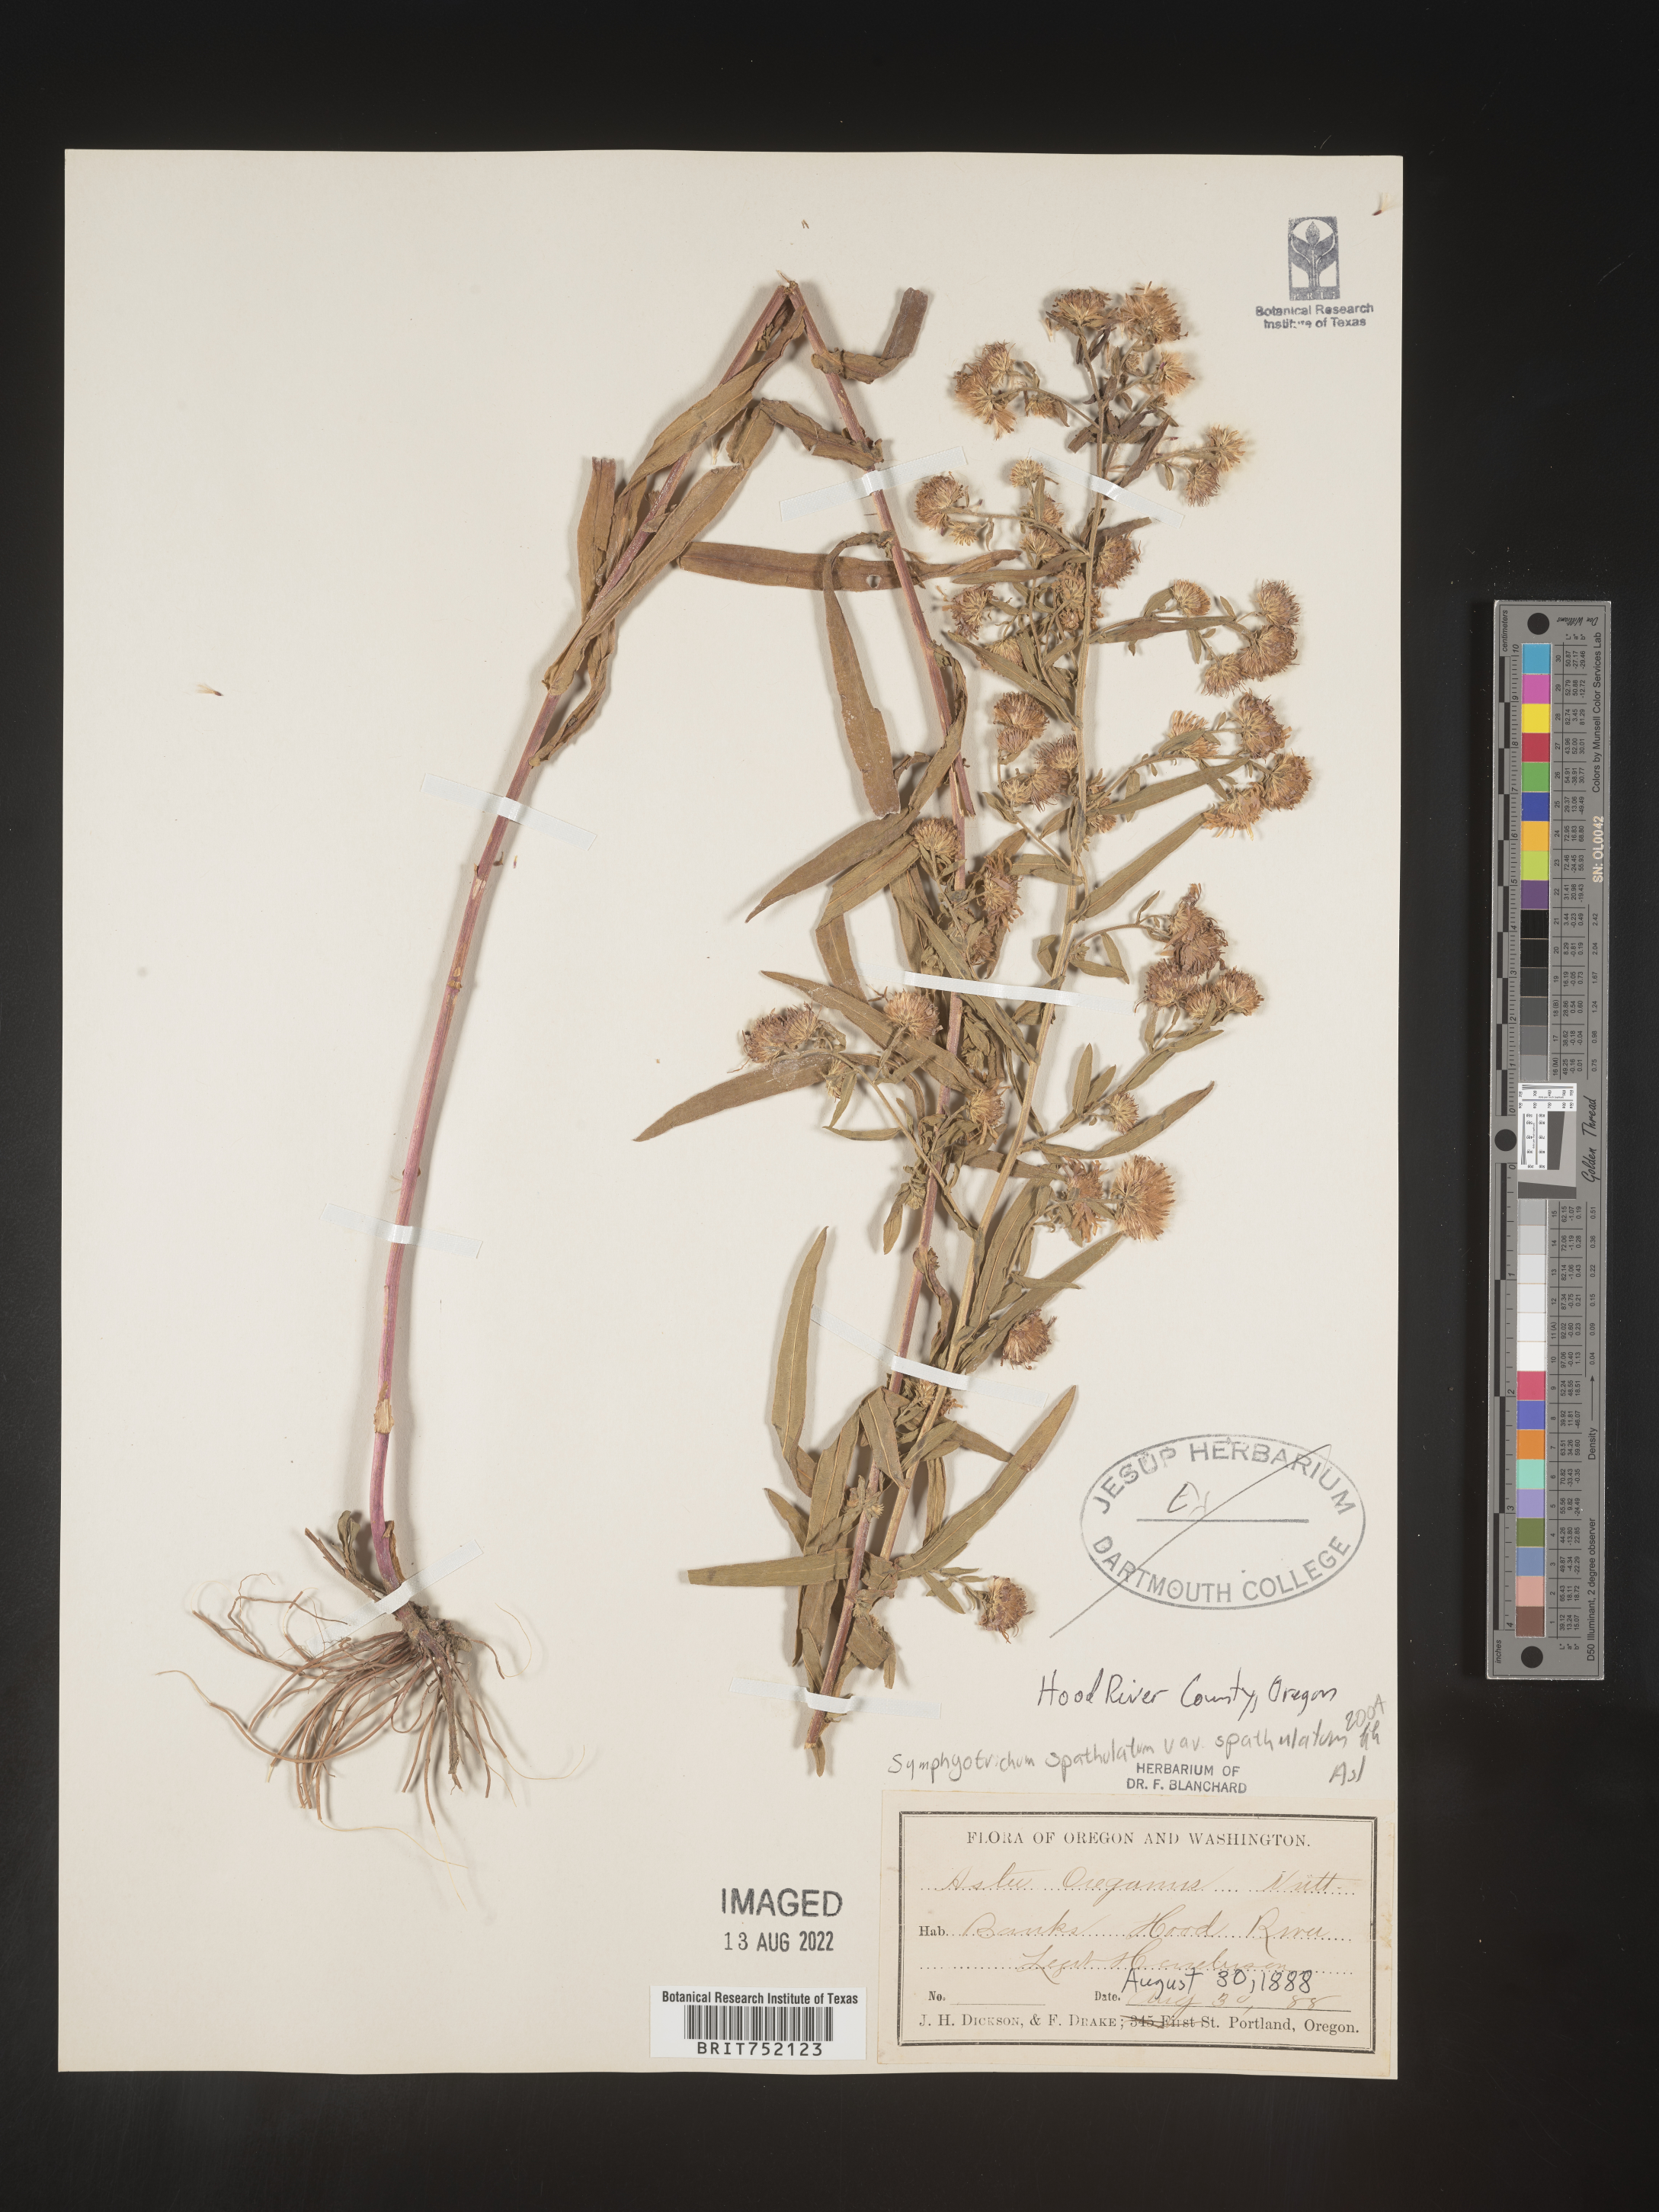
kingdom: Plantae
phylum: Tracheophyta
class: Magnoliopsida
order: Asterales
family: Asteraceae
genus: Symphyotrichum
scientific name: Symphyotrichum spathulatum
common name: Western mountain aster
